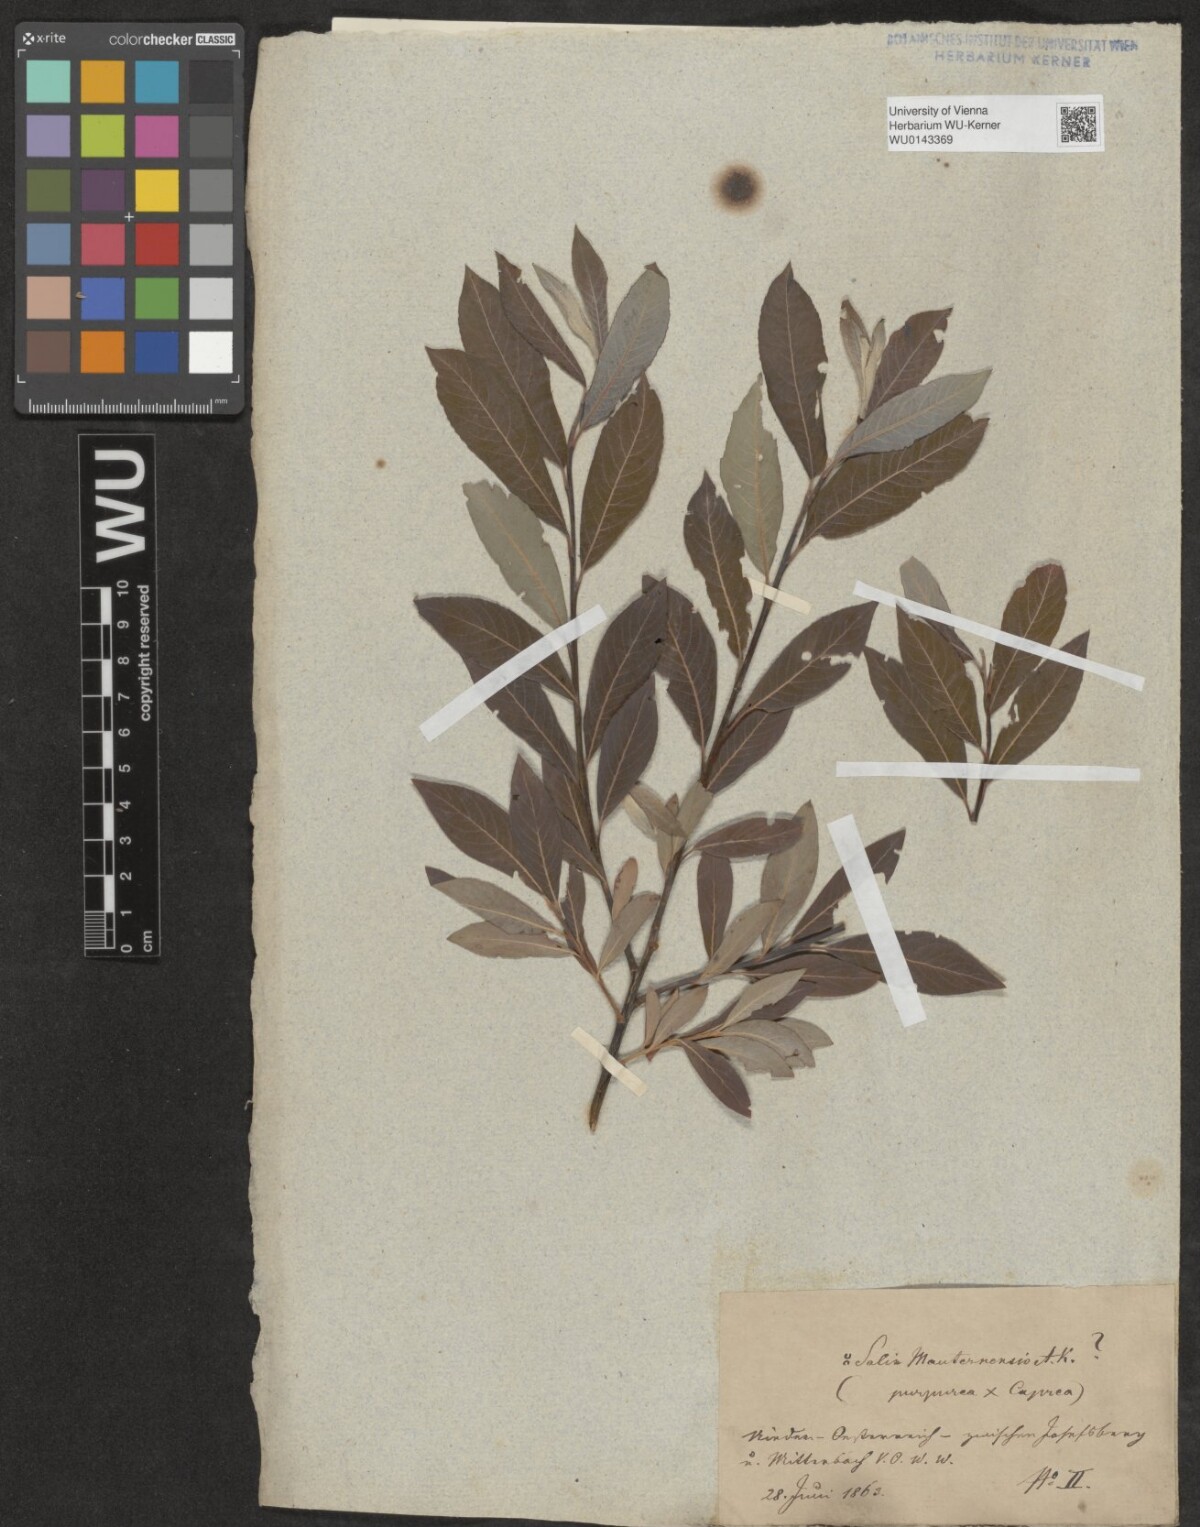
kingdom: Plantae
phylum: Tracheophyta
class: Magnoliopsida
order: Malpighiales
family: Salicaceae
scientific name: Salicaceae
